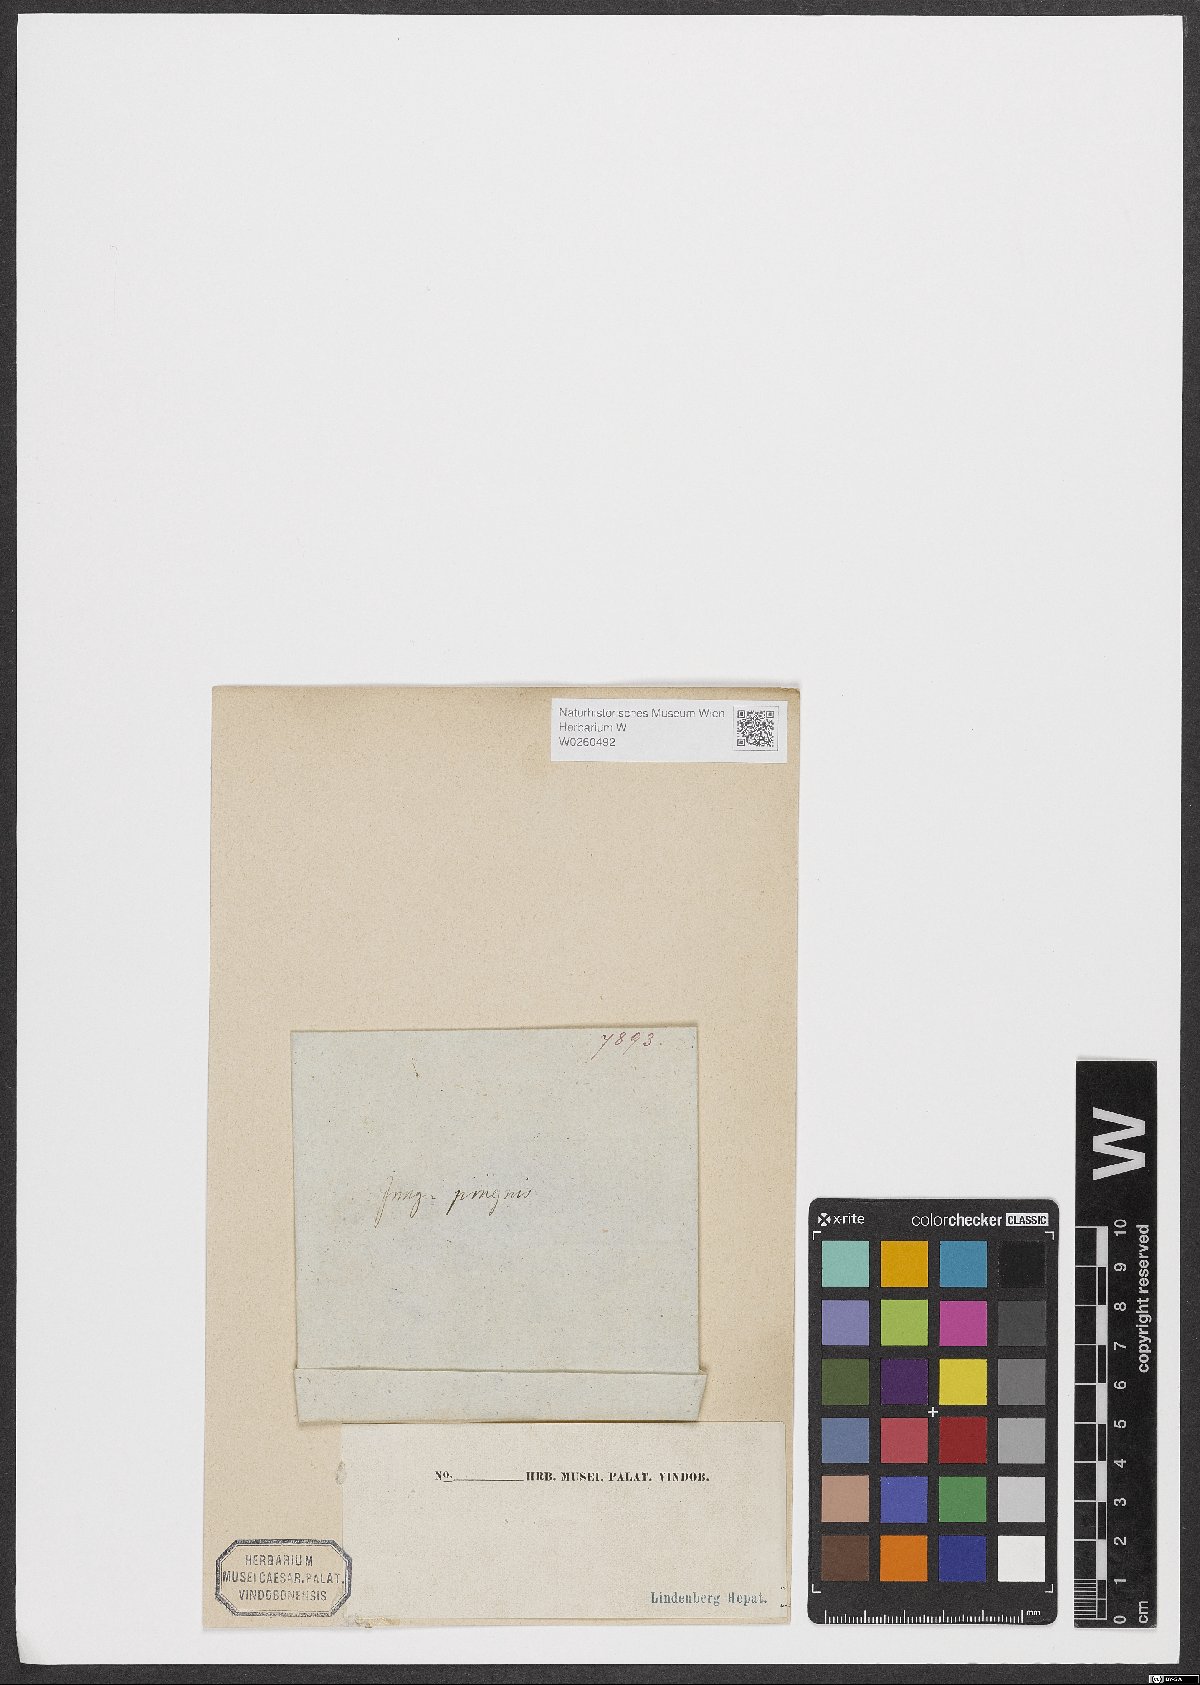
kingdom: Plantae
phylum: Marchantiophyta
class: Jungermanniopsida
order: Metzgeriales
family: Aneuraceae
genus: Aneura
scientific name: Aneura pinguis
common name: Common greasewort
